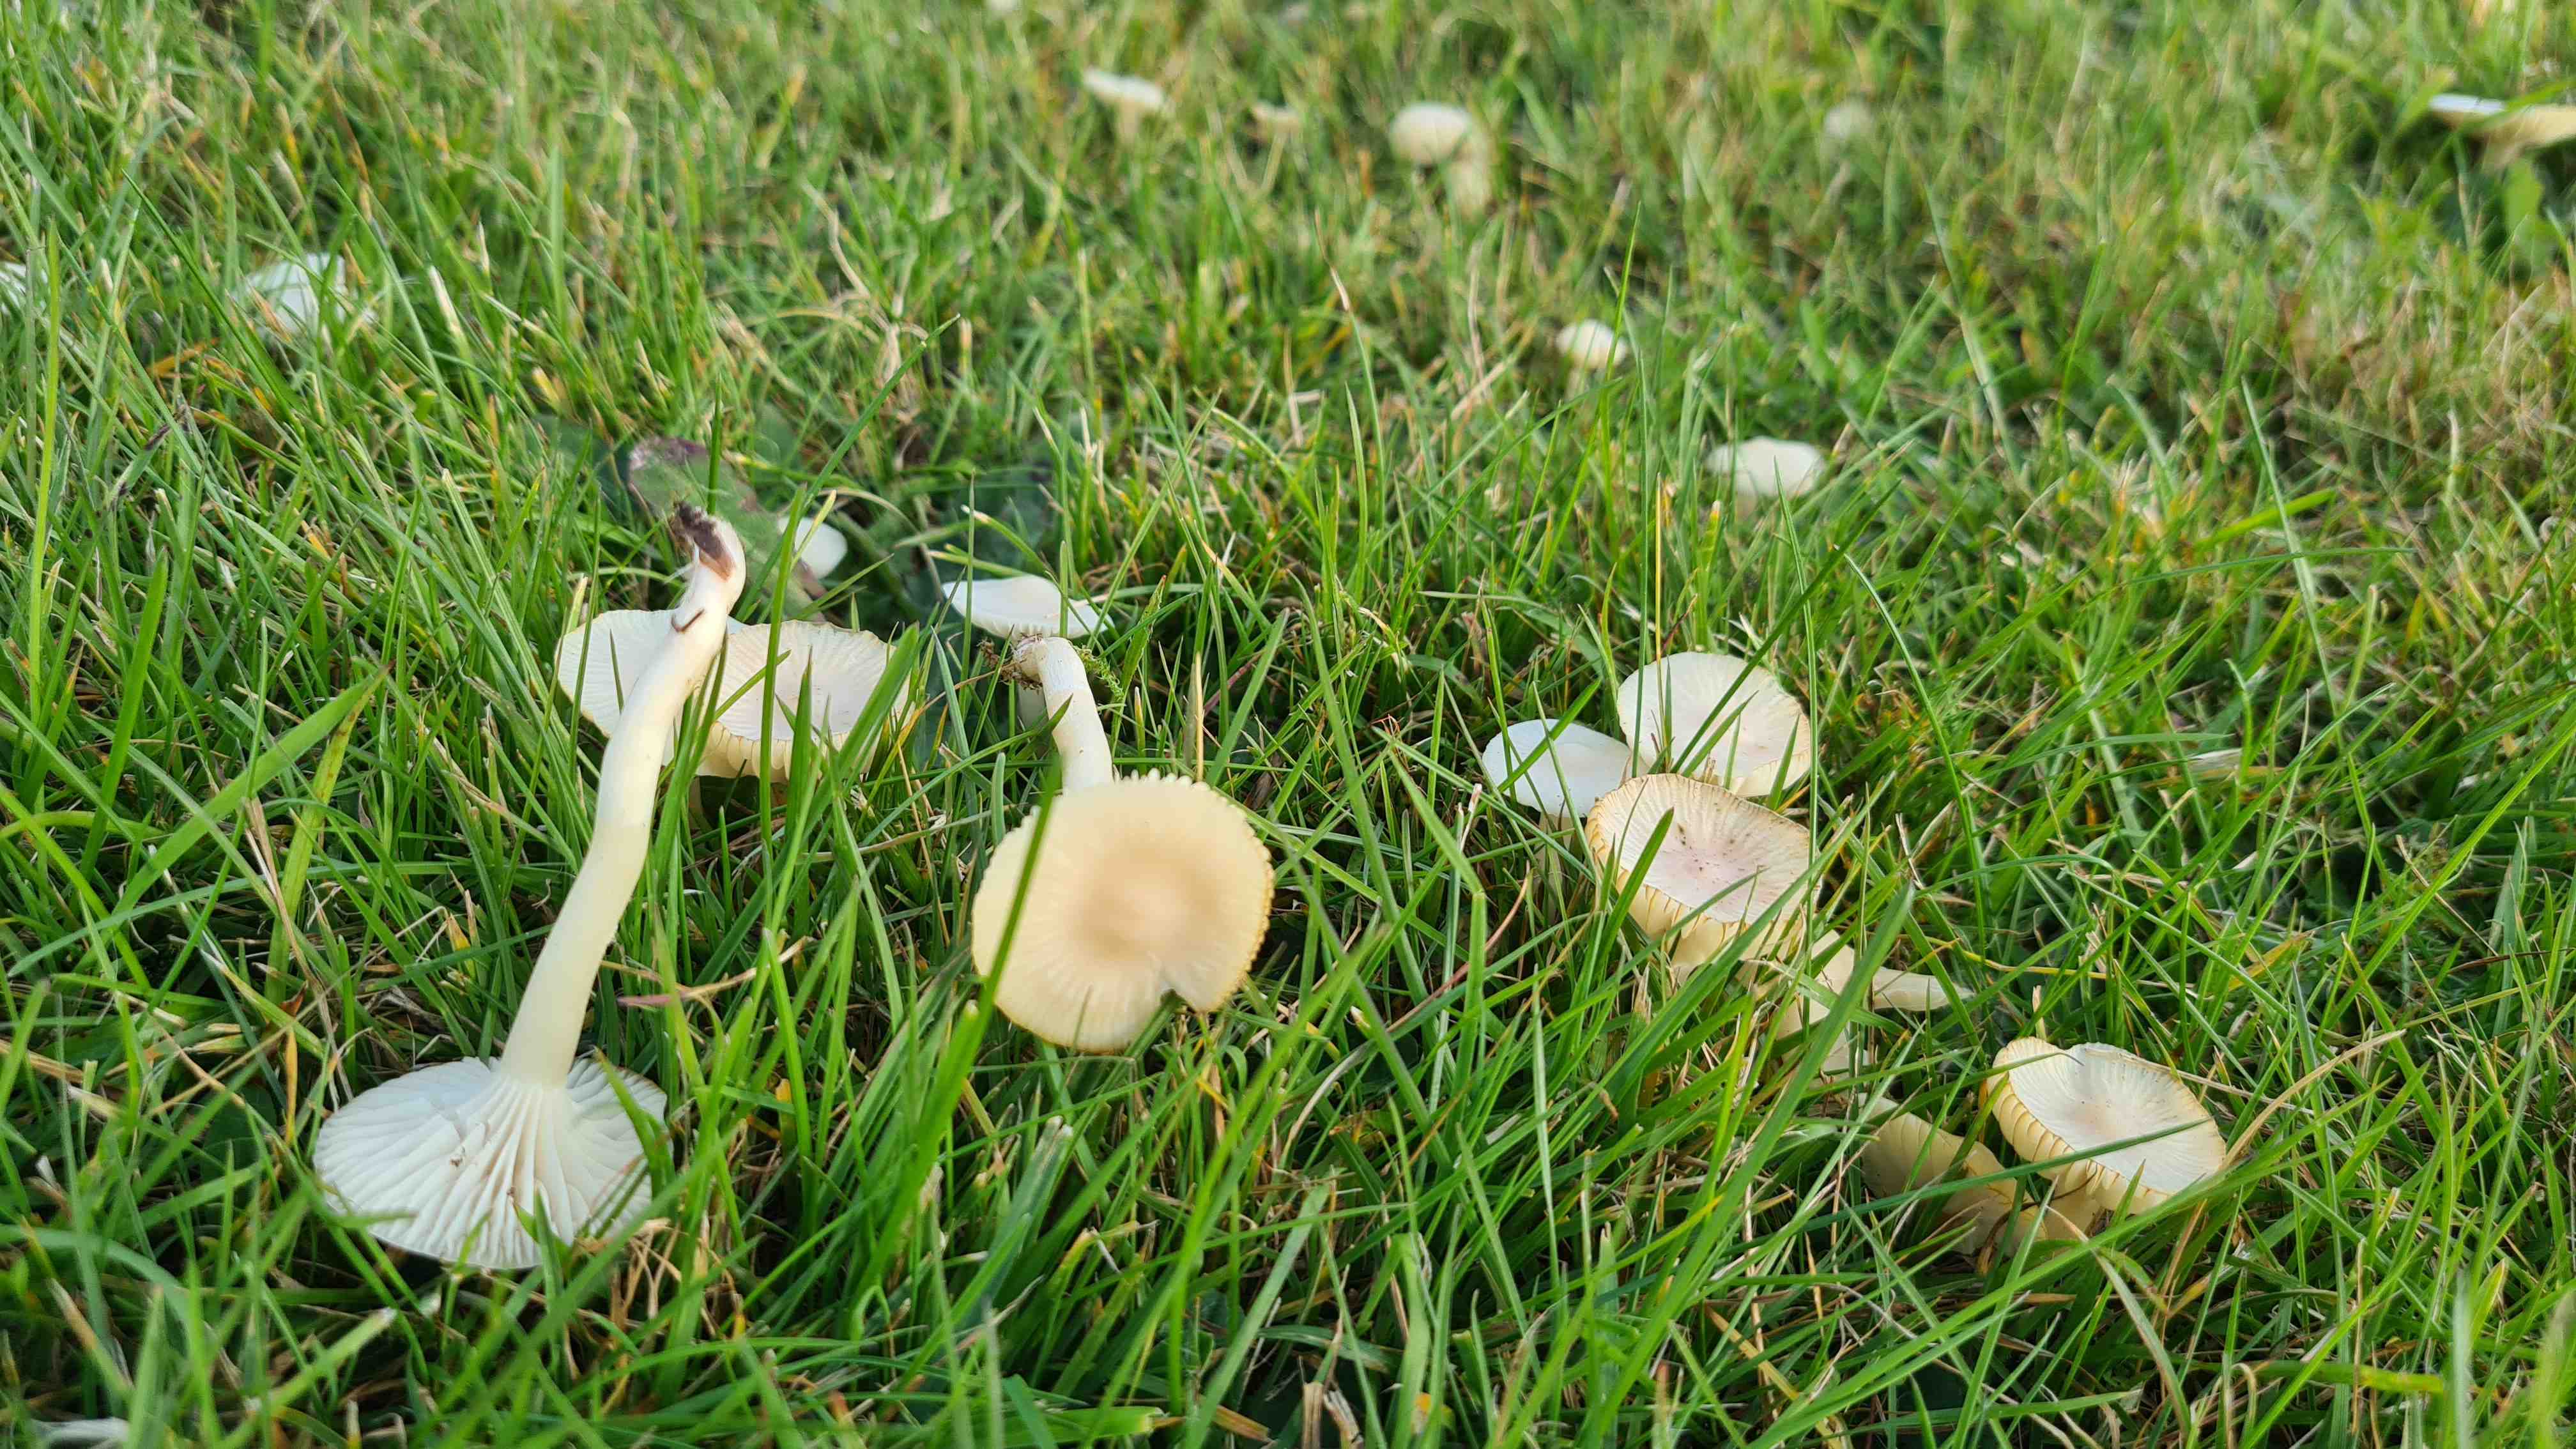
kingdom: Fungi
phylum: Basidiomycota
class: Agaricomycetes
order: Agaricales
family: Hygrophoraceae
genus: Cuphophyllus
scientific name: Cuphophyllus virgineus
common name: snehvid vokshat
